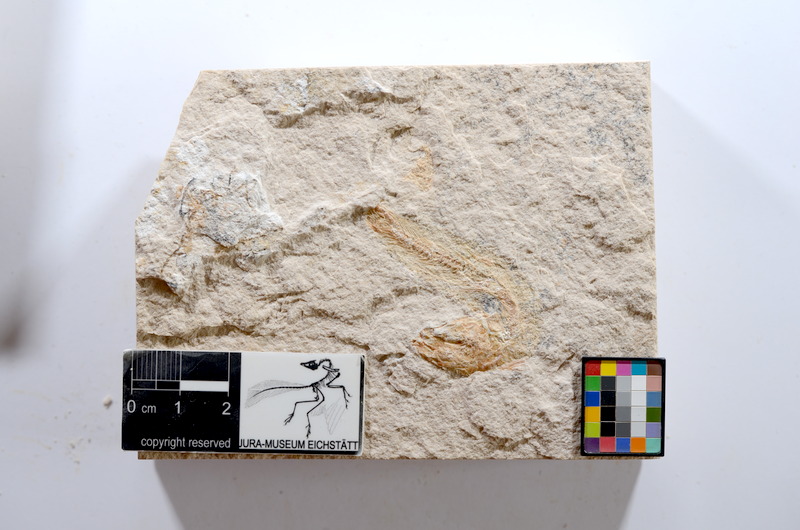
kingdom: Animalia
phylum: Chordata
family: Ascalaboidae
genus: Tharsis
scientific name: Tharsis dubius
